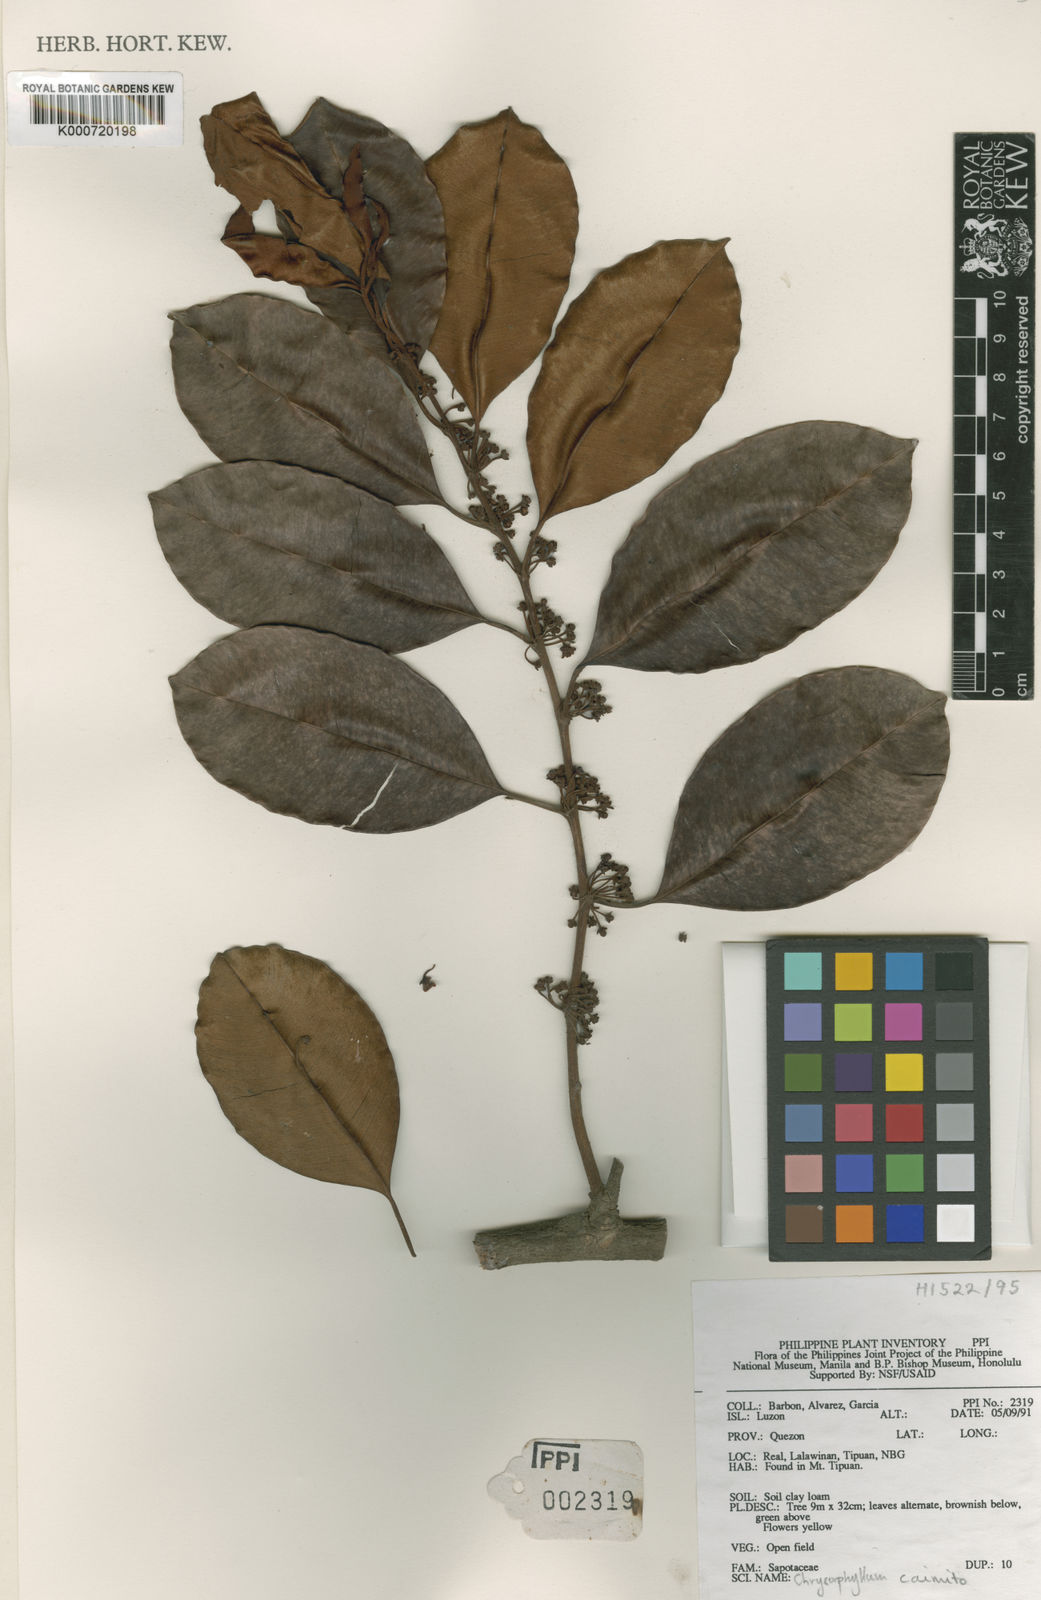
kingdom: Plantae
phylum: Tracheophyta
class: Magnoliopsida
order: Ericales
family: Sapotaceae
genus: Chrysophyllum
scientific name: Chrysophyllum cainito
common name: Star-apple
